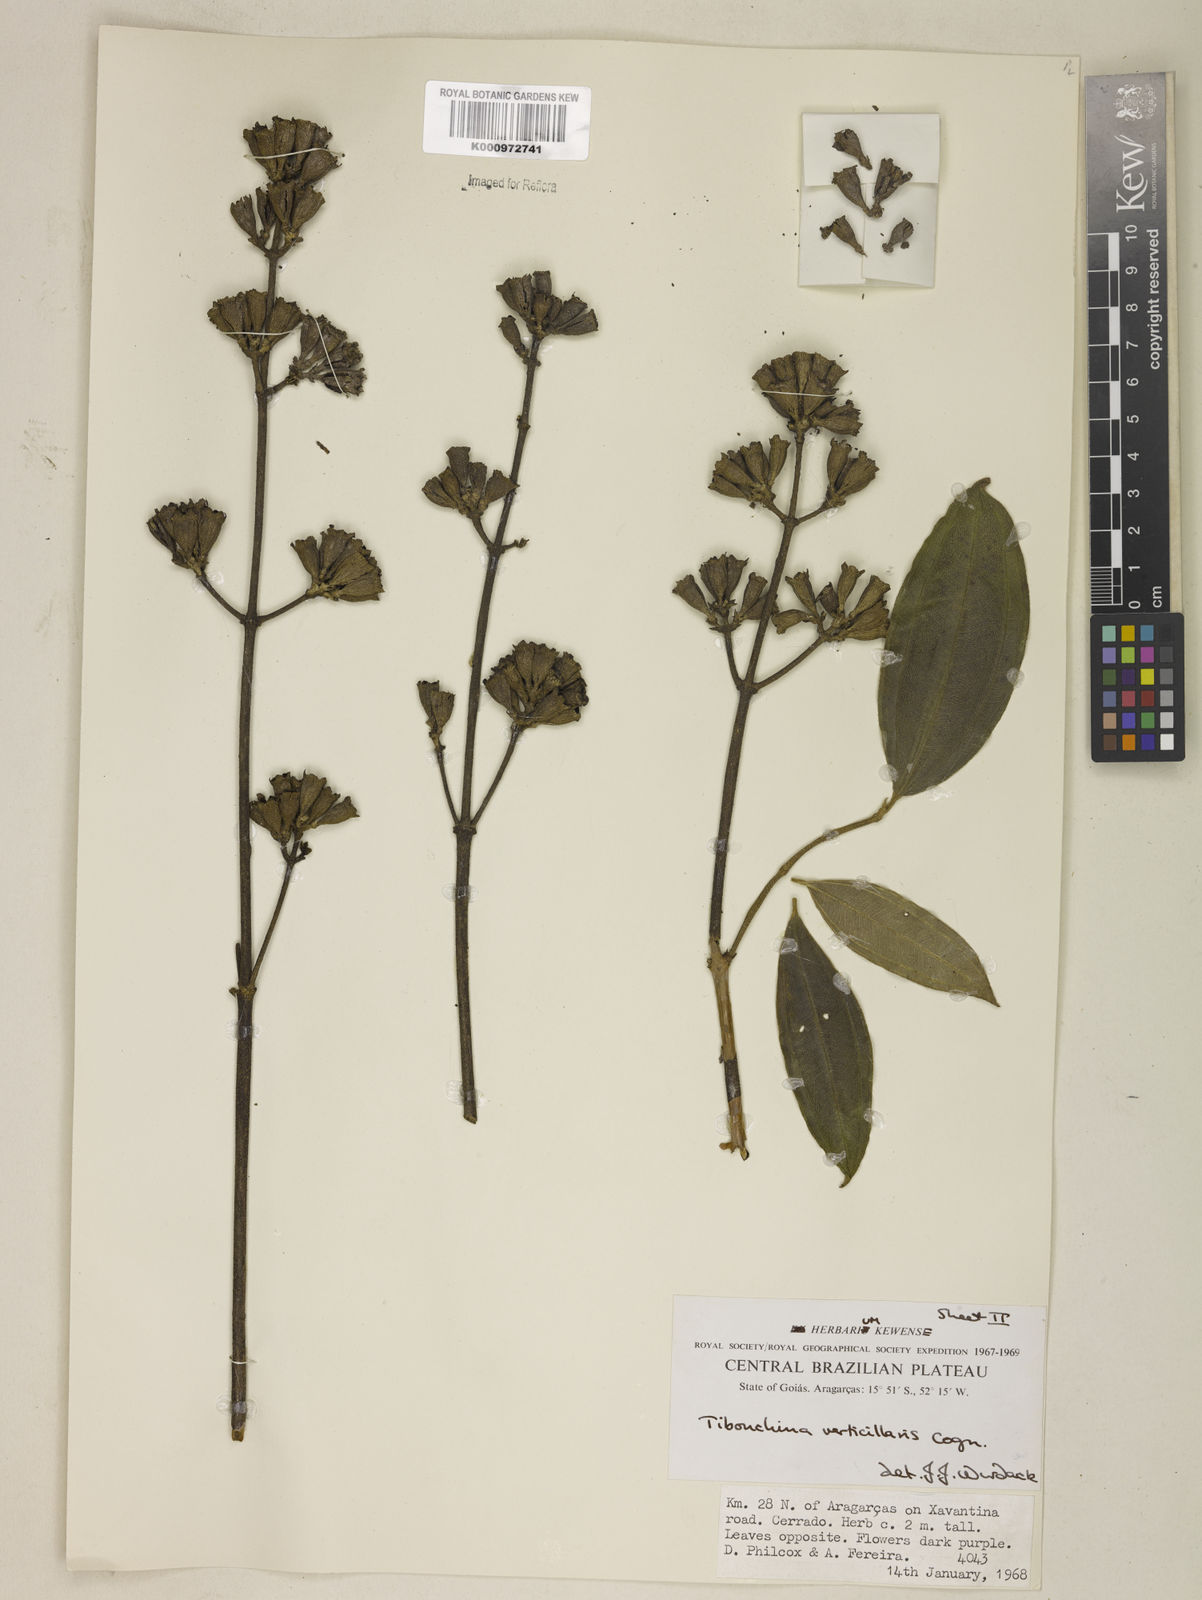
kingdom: Plantae
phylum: Tracheophyta
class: Magnoliopsida
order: Myrtales
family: Melastomataceae
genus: Tibouchina
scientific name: Tibouchina verticillaris
